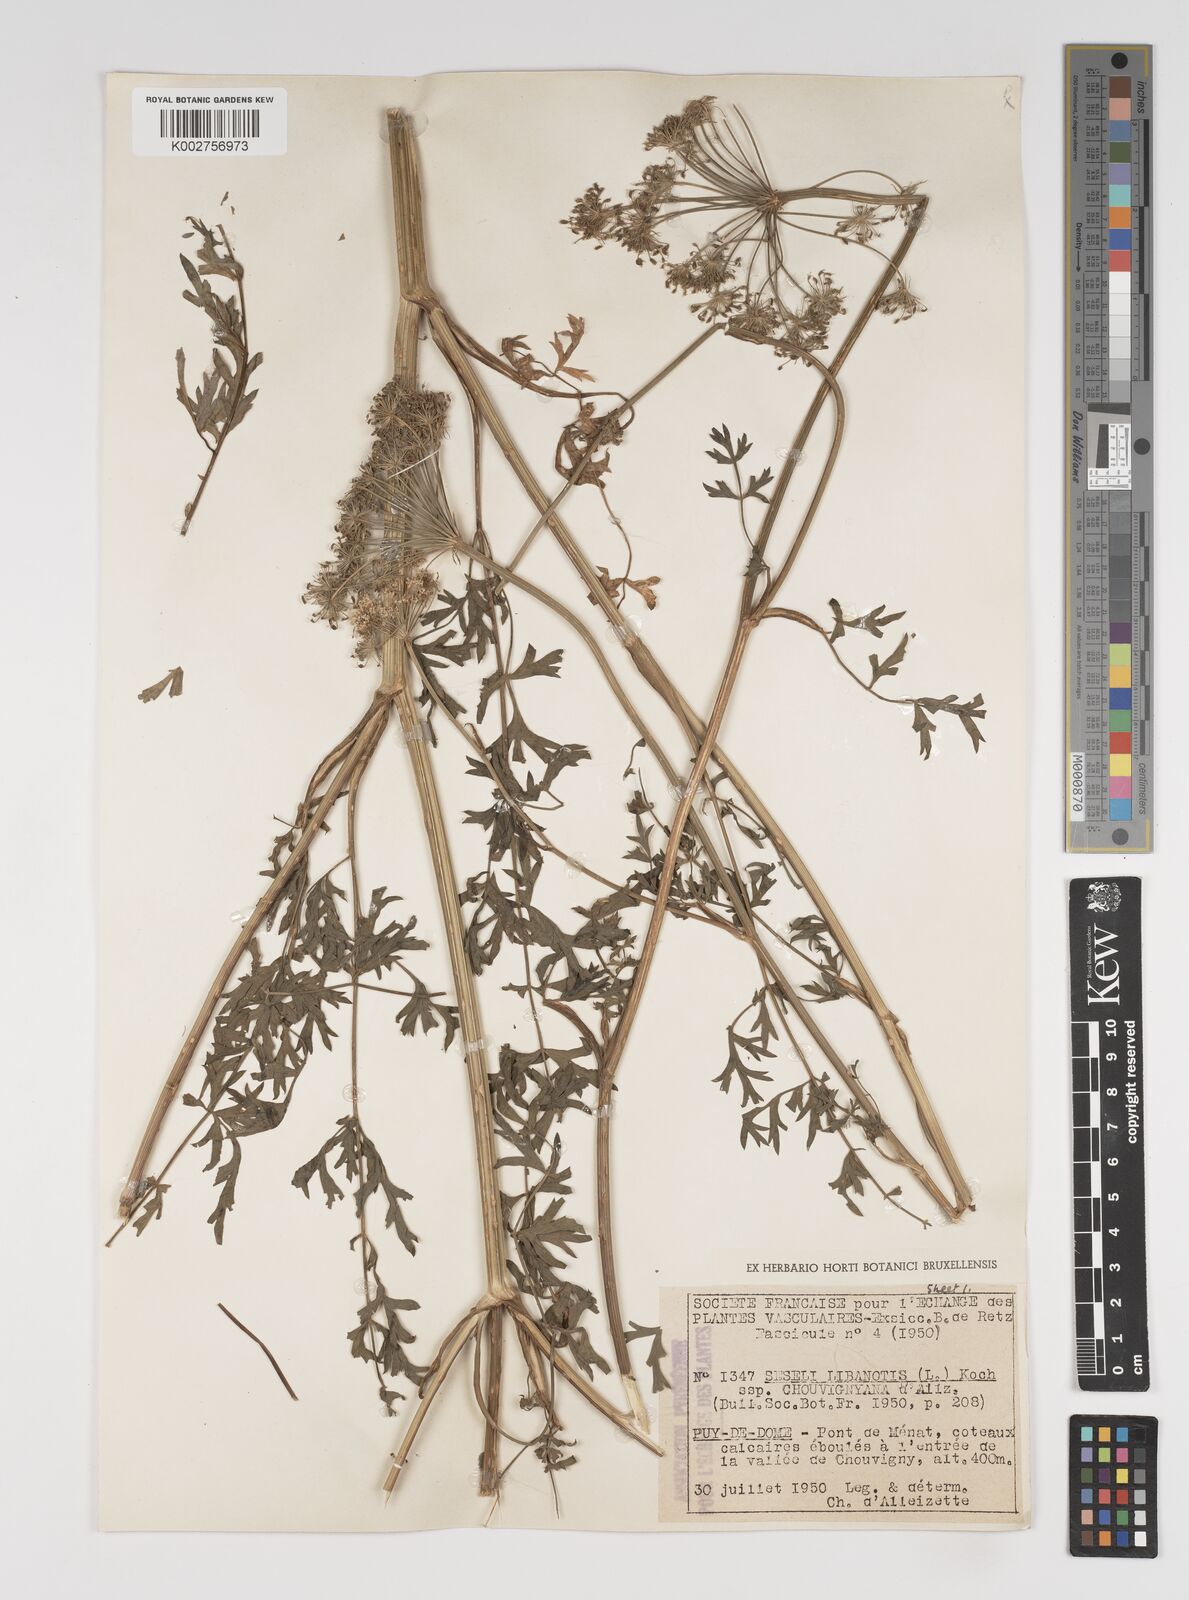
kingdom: Plantae
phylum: Tracheophyta
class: Magnoliopsida
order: Apiales
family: Apiaceae
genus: Seseli
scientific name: Seseli libanotis
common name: Mooncarrot
